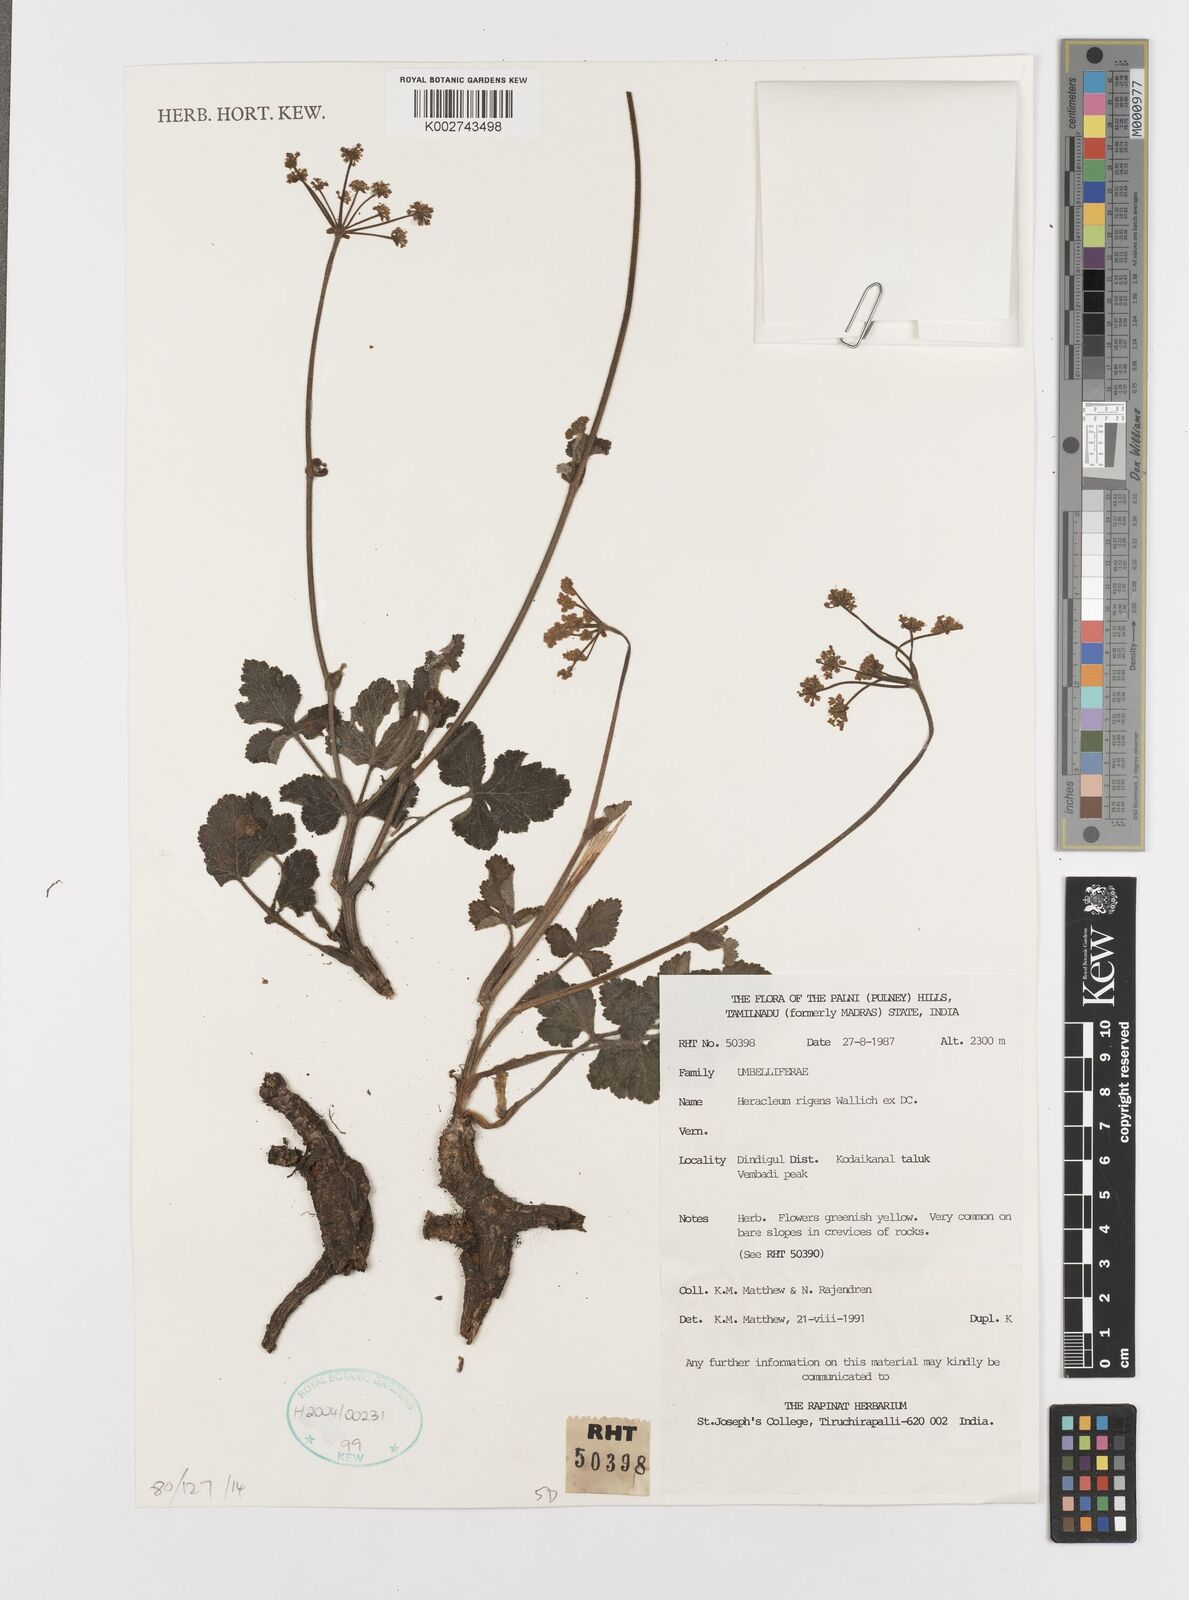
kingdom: Plantae
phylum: Tracheophyta
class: Magnoliopsida
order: Apiales
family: Apiaceae
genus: Tetrataenium
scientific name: Tetrataenium rigens
